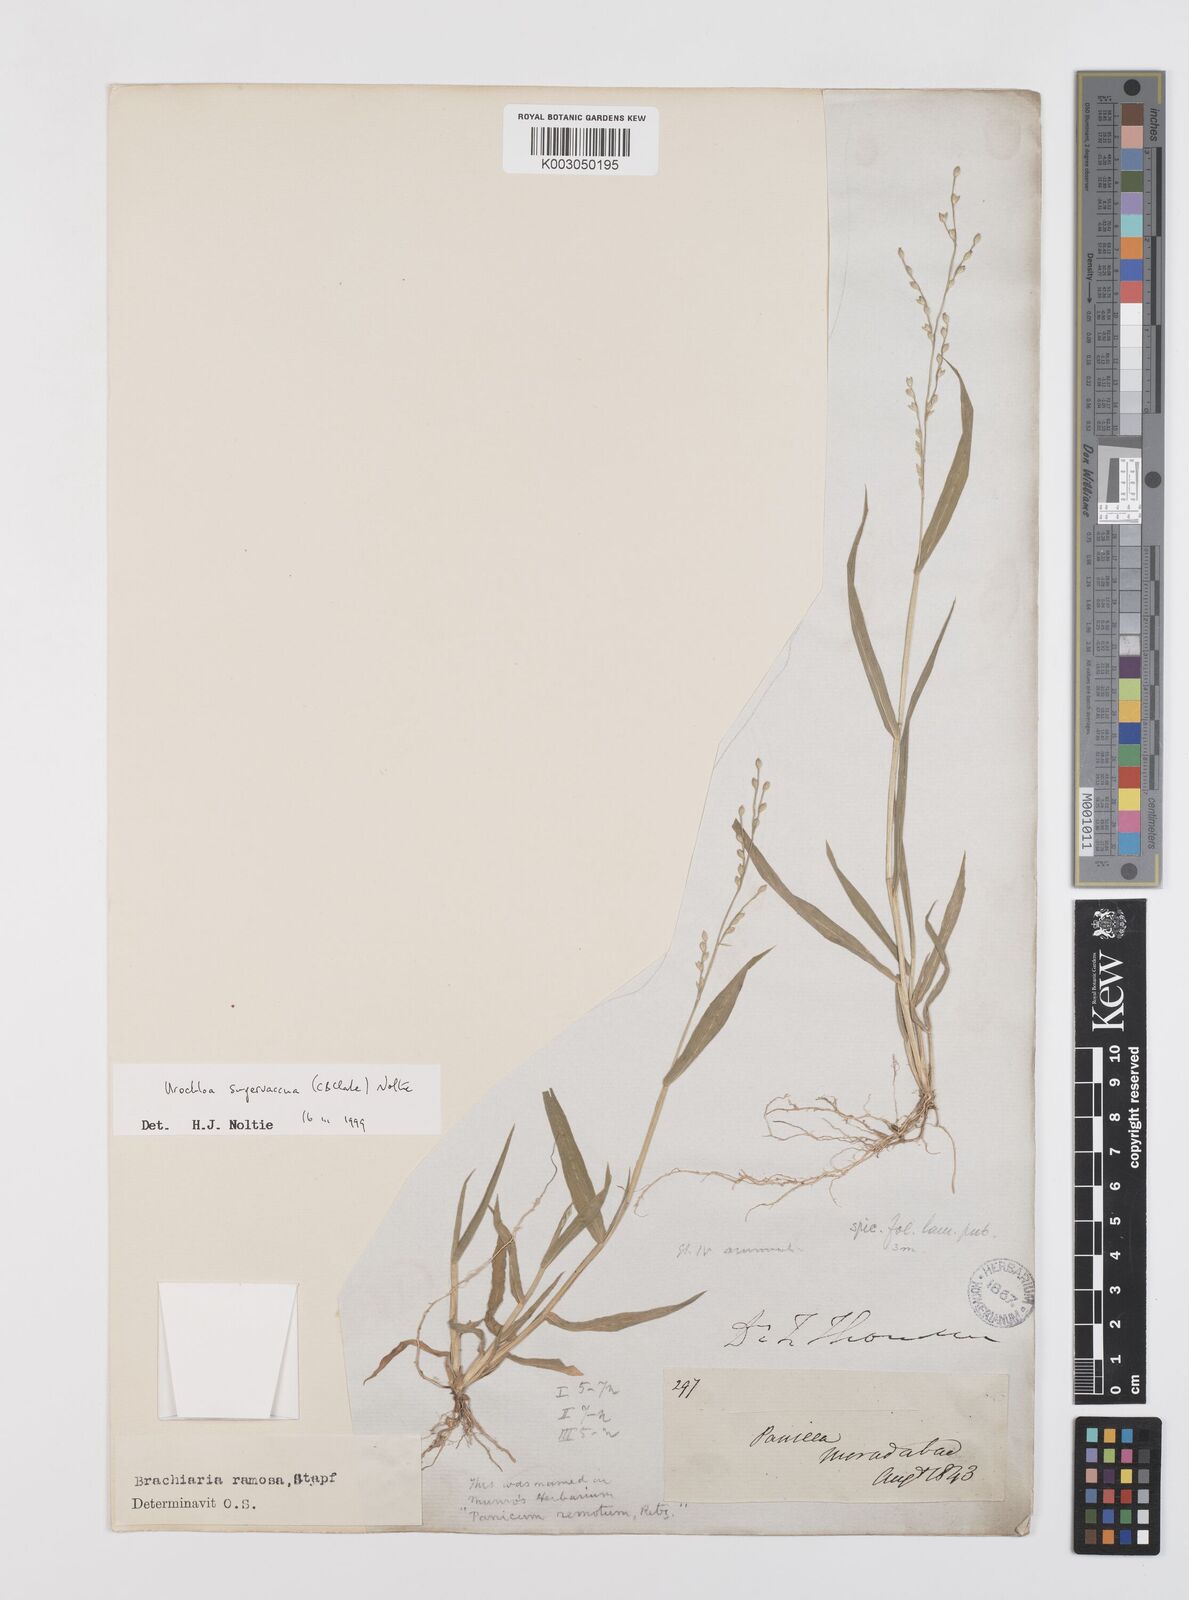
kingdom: Plantae
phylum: Tracheophyta
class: Liliopsida
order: Poales
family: Poaceae
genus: Urochloa
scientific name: Urochloa ramosa
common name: Browntop millet
